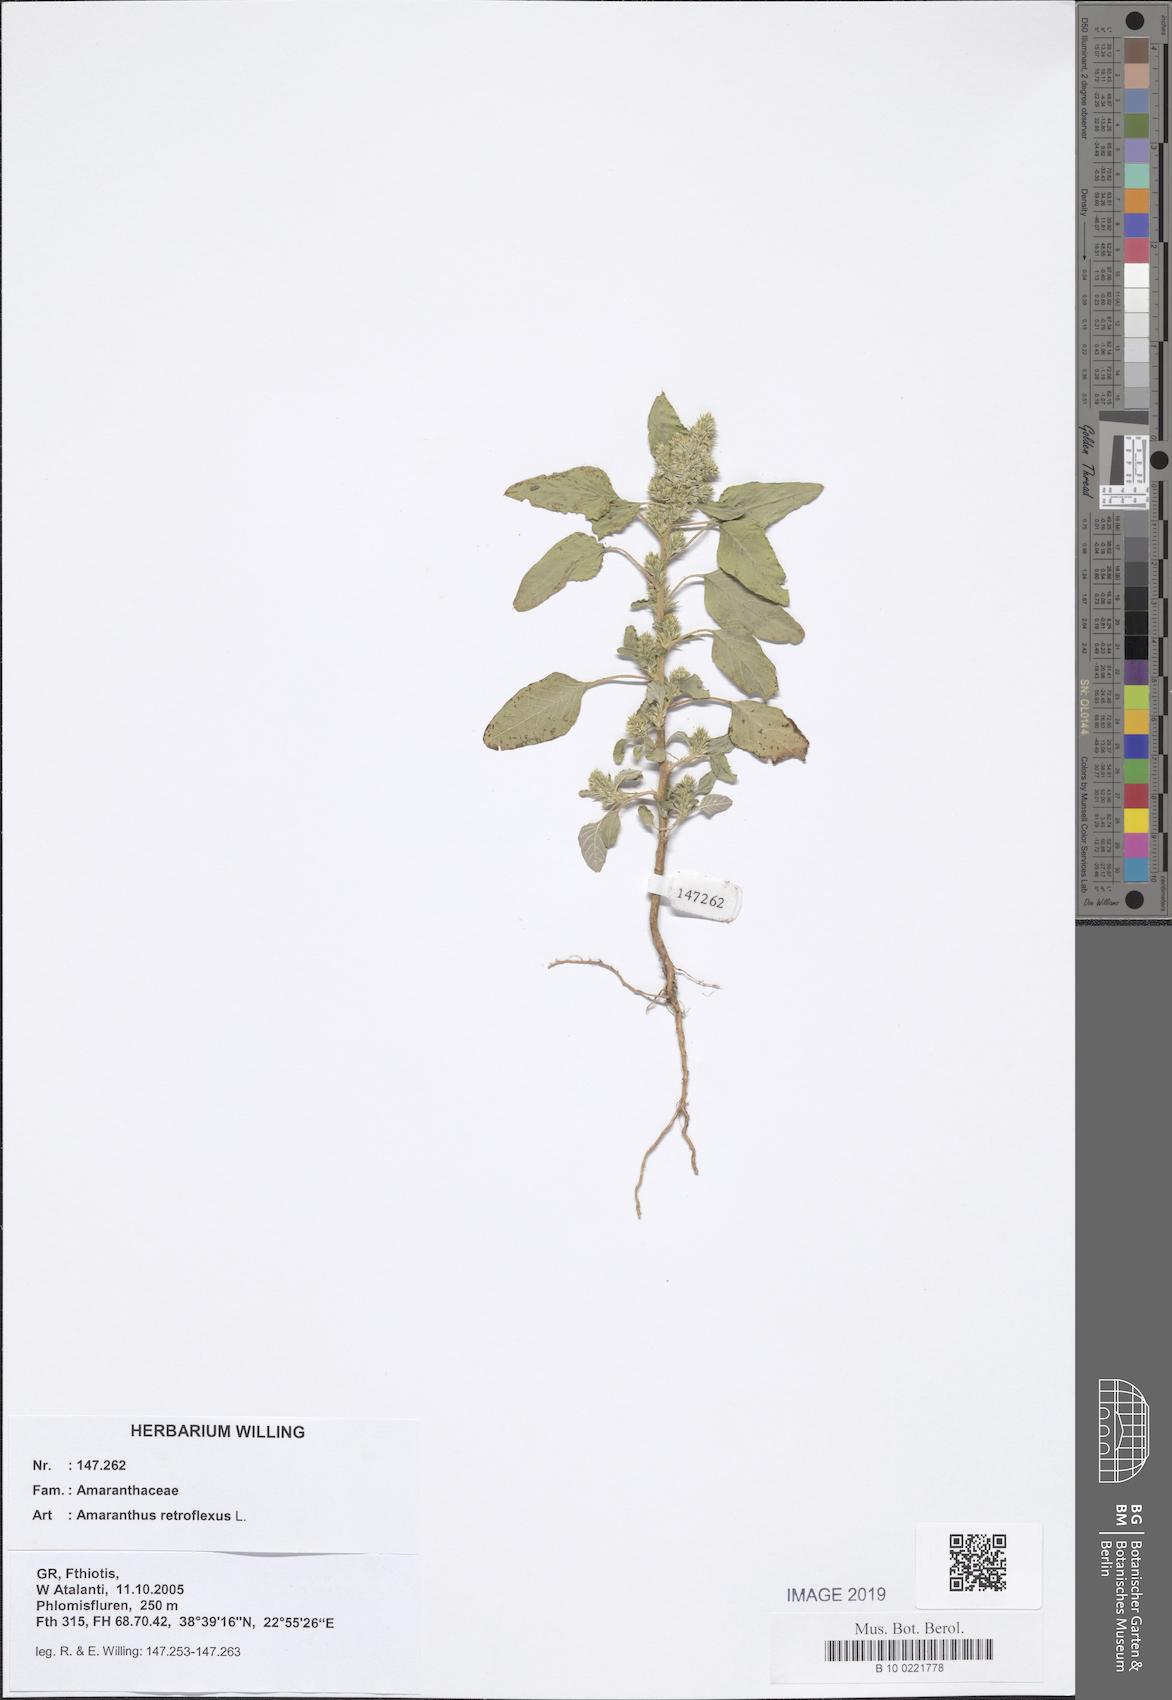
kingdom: Plantae
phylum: Tracheophyta
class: Magnoliopsida
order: Caryophyllales
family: Amaranthaceae
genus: Amaranthus
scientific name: Amaranthus retroflexus
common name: Redroot amaranth
